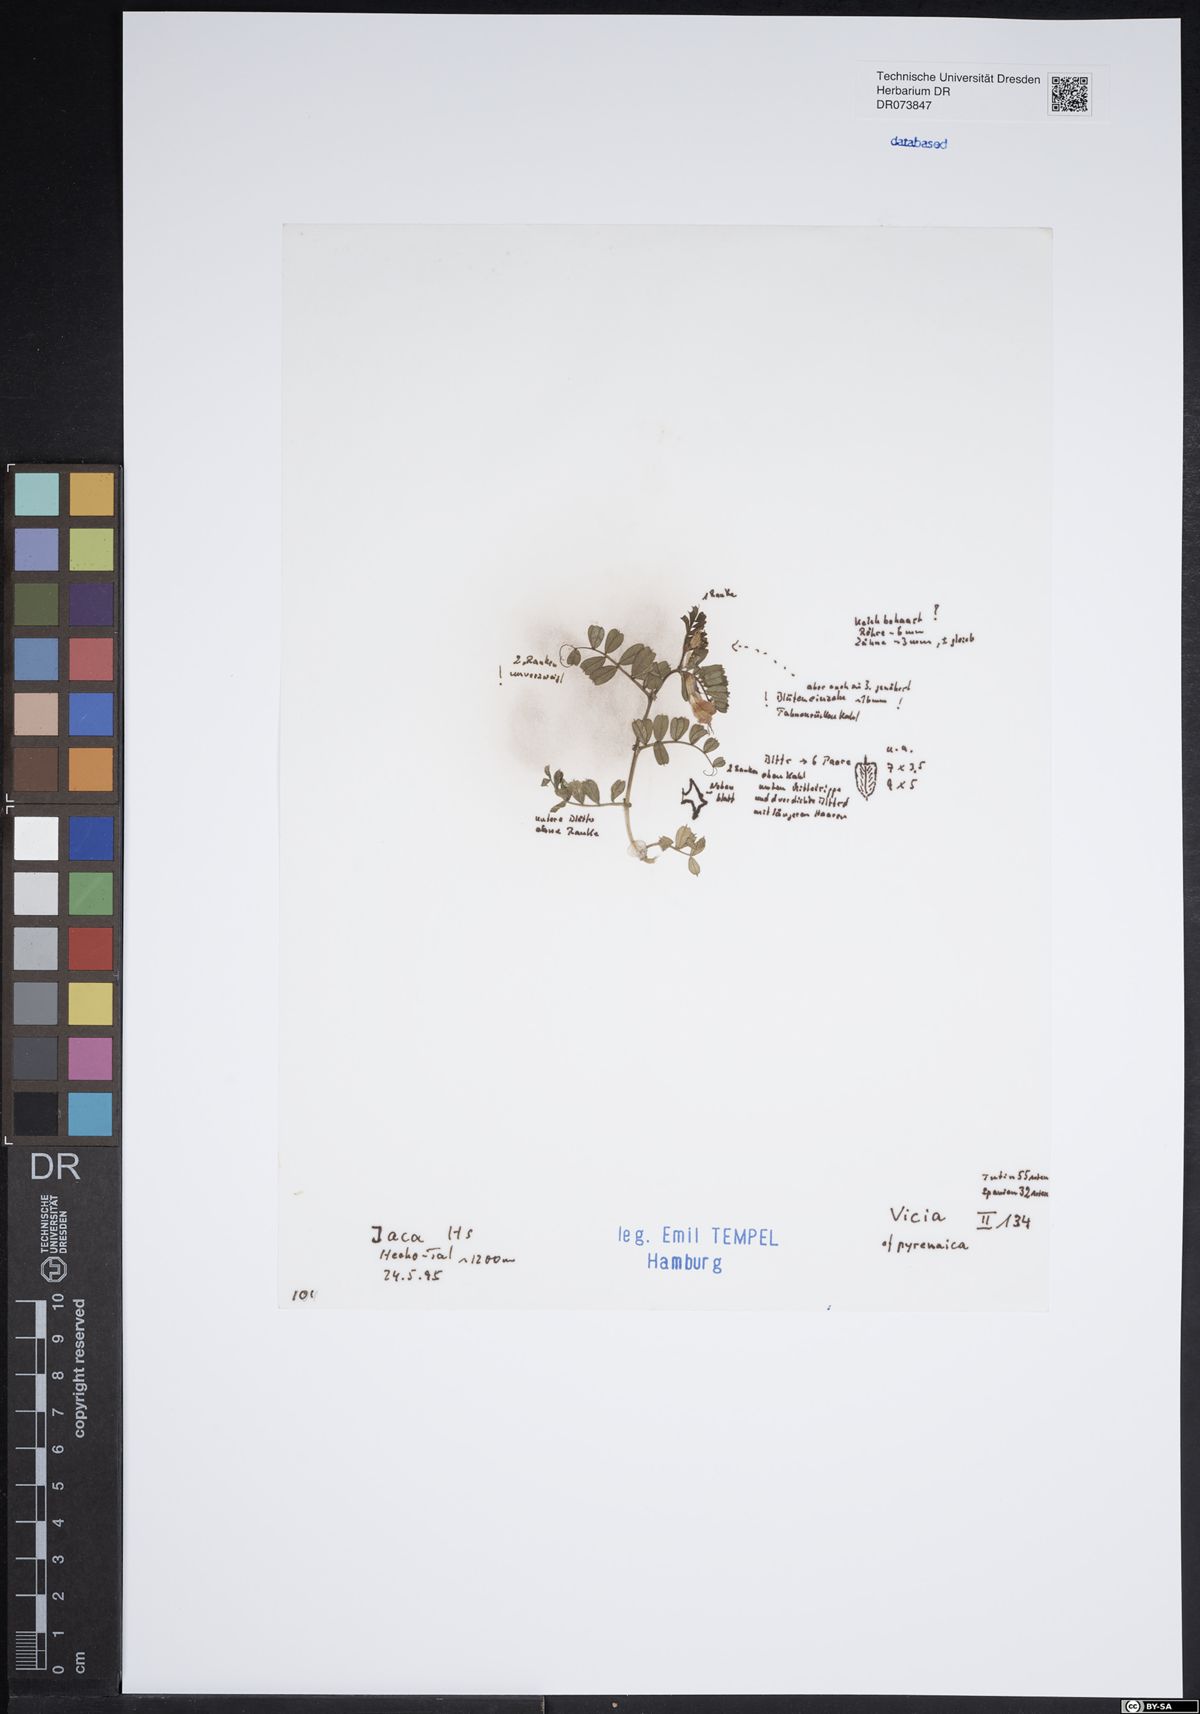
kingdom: Plantae
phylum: Tracheophyta
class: Magnoliopsida
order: Fabales
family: Fabaceae
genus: Vicia
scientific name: Vicia pyrenaica
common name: Pyrenean vetch
